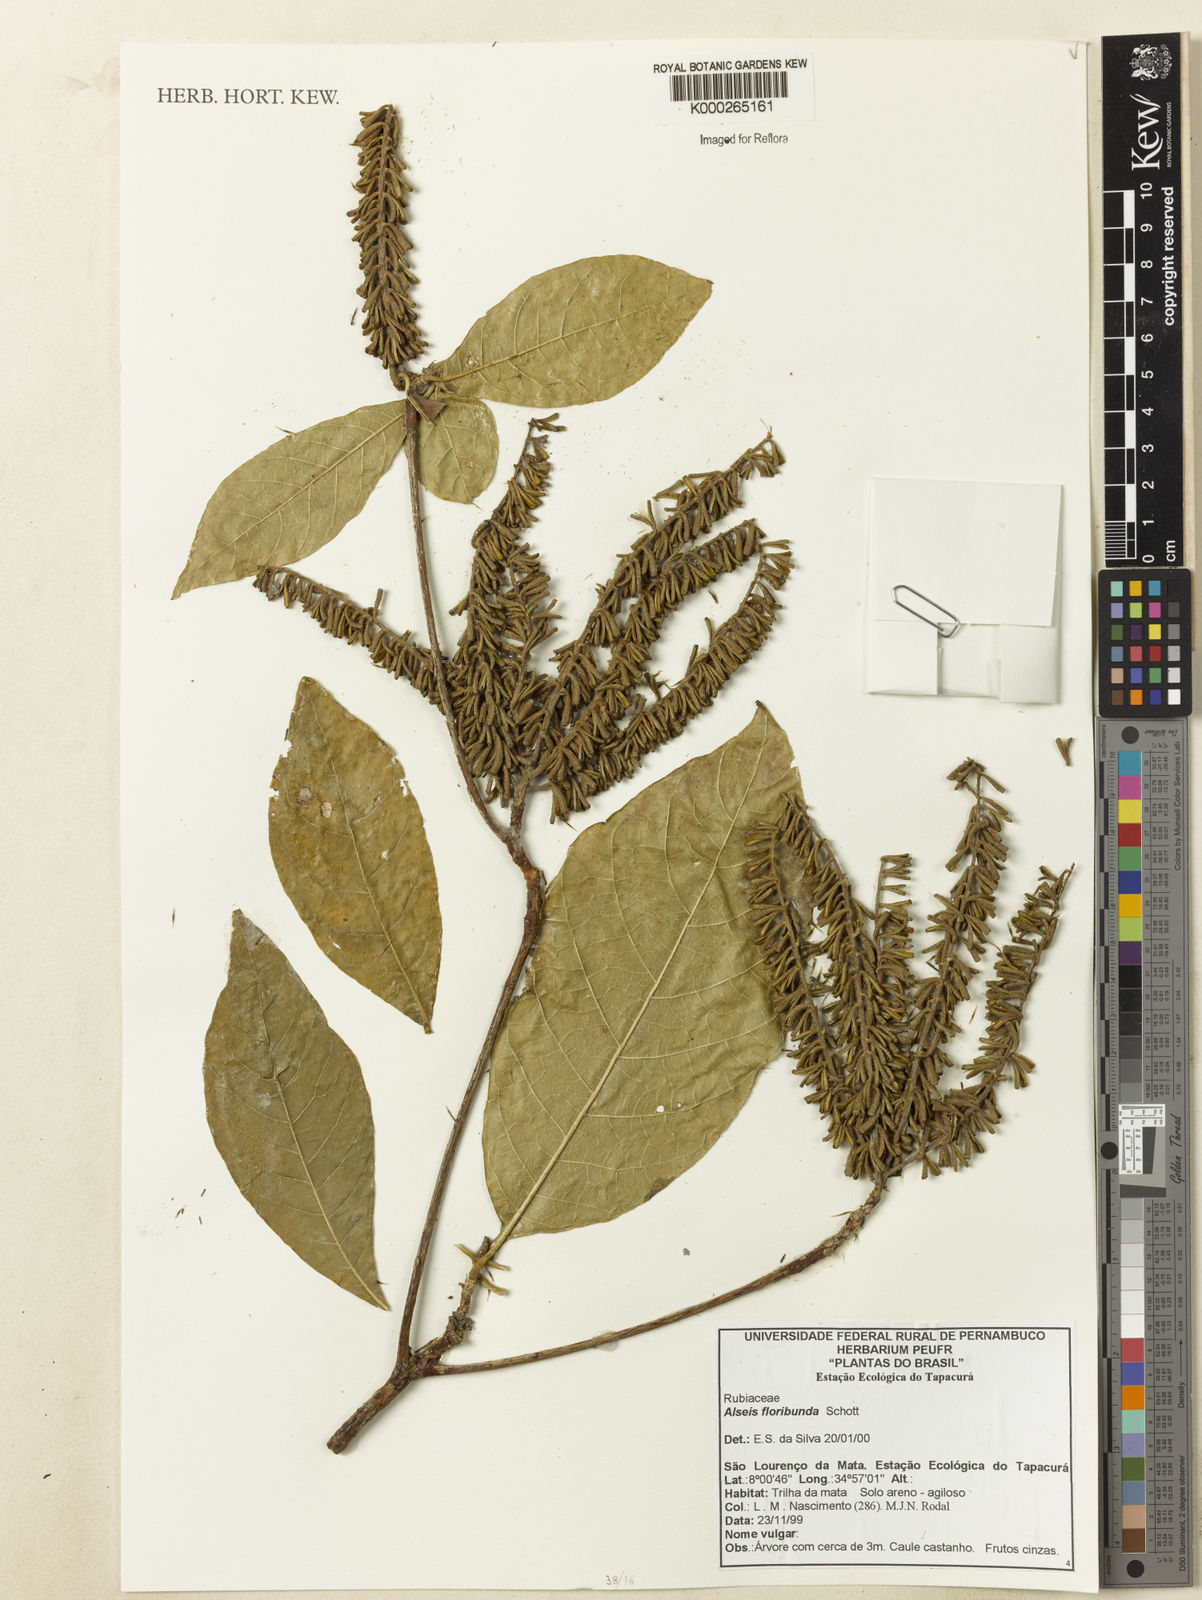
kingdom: Plantae
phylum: Tracheophyta
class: Magnoliopsida
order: Gentianales
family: Rubiaceae
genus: Alseis
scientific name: Alseis floribunda
